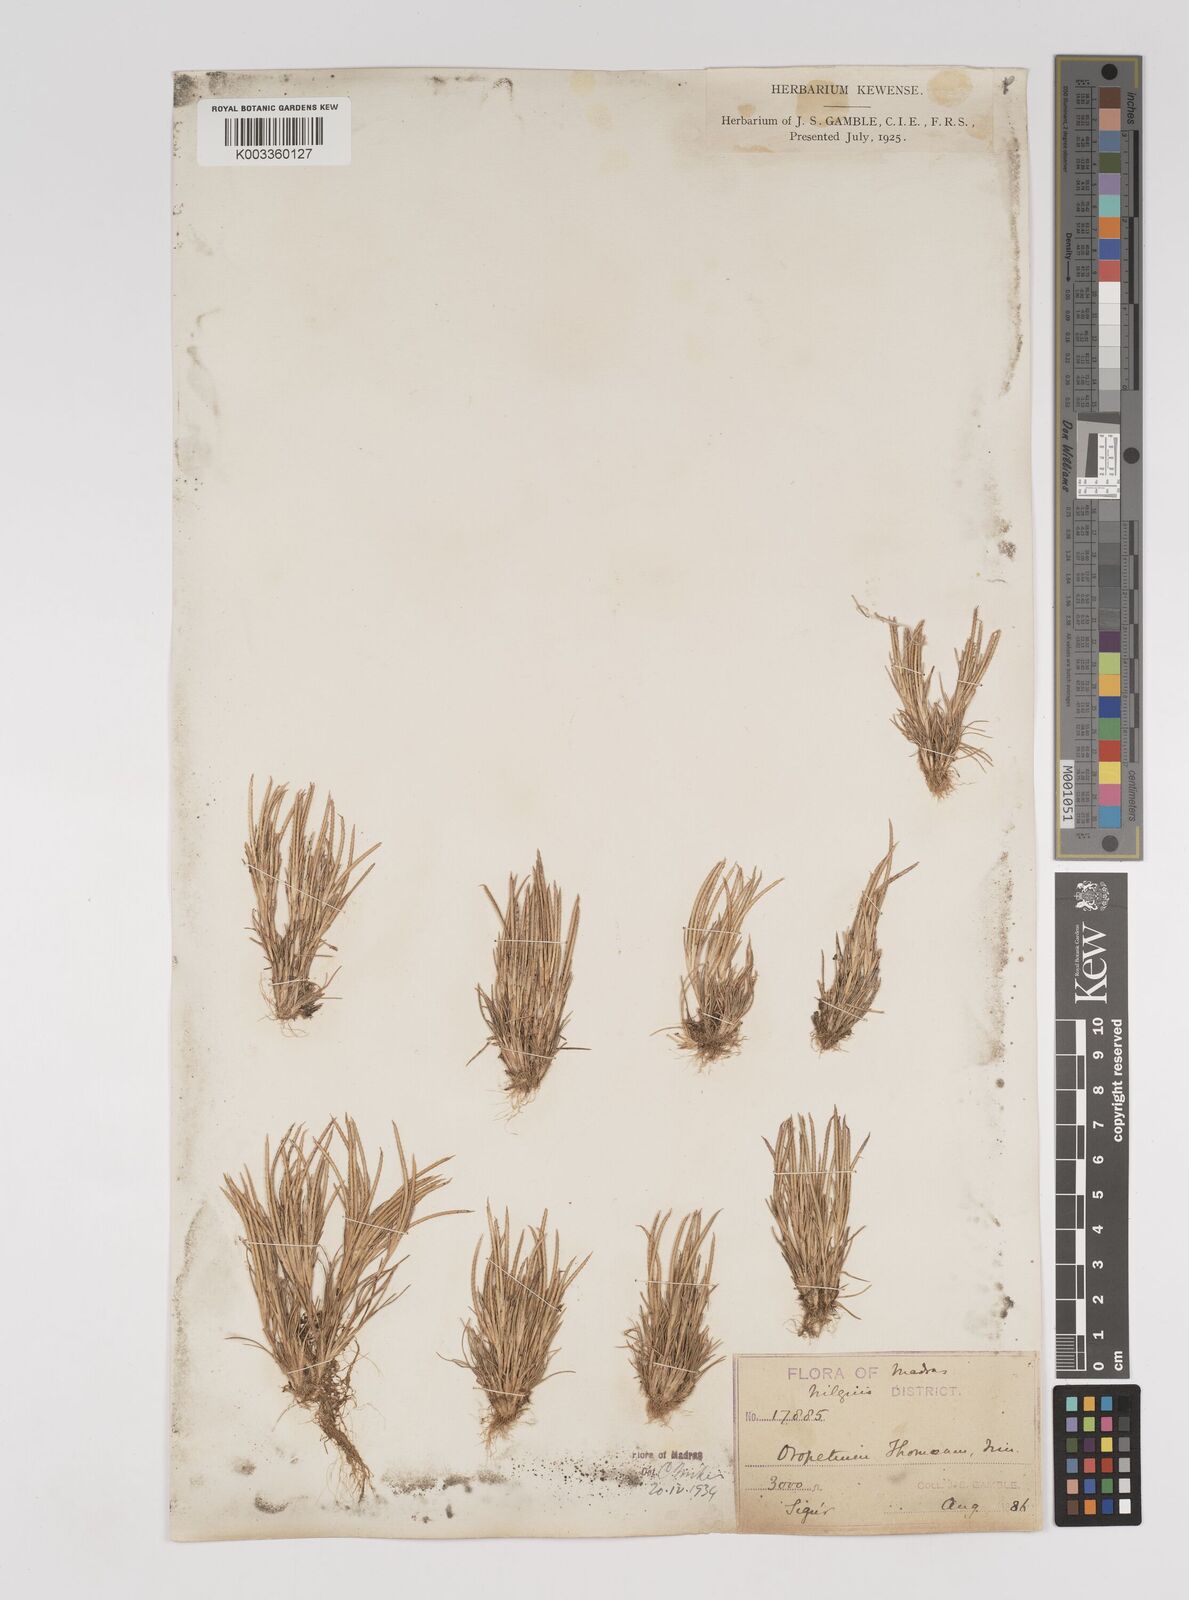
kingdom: Plantae
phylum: Tracheophyta
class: Liliopsida
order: Poales
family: Poaceae
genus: Oropetium
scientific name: Oropetium thomaeum
